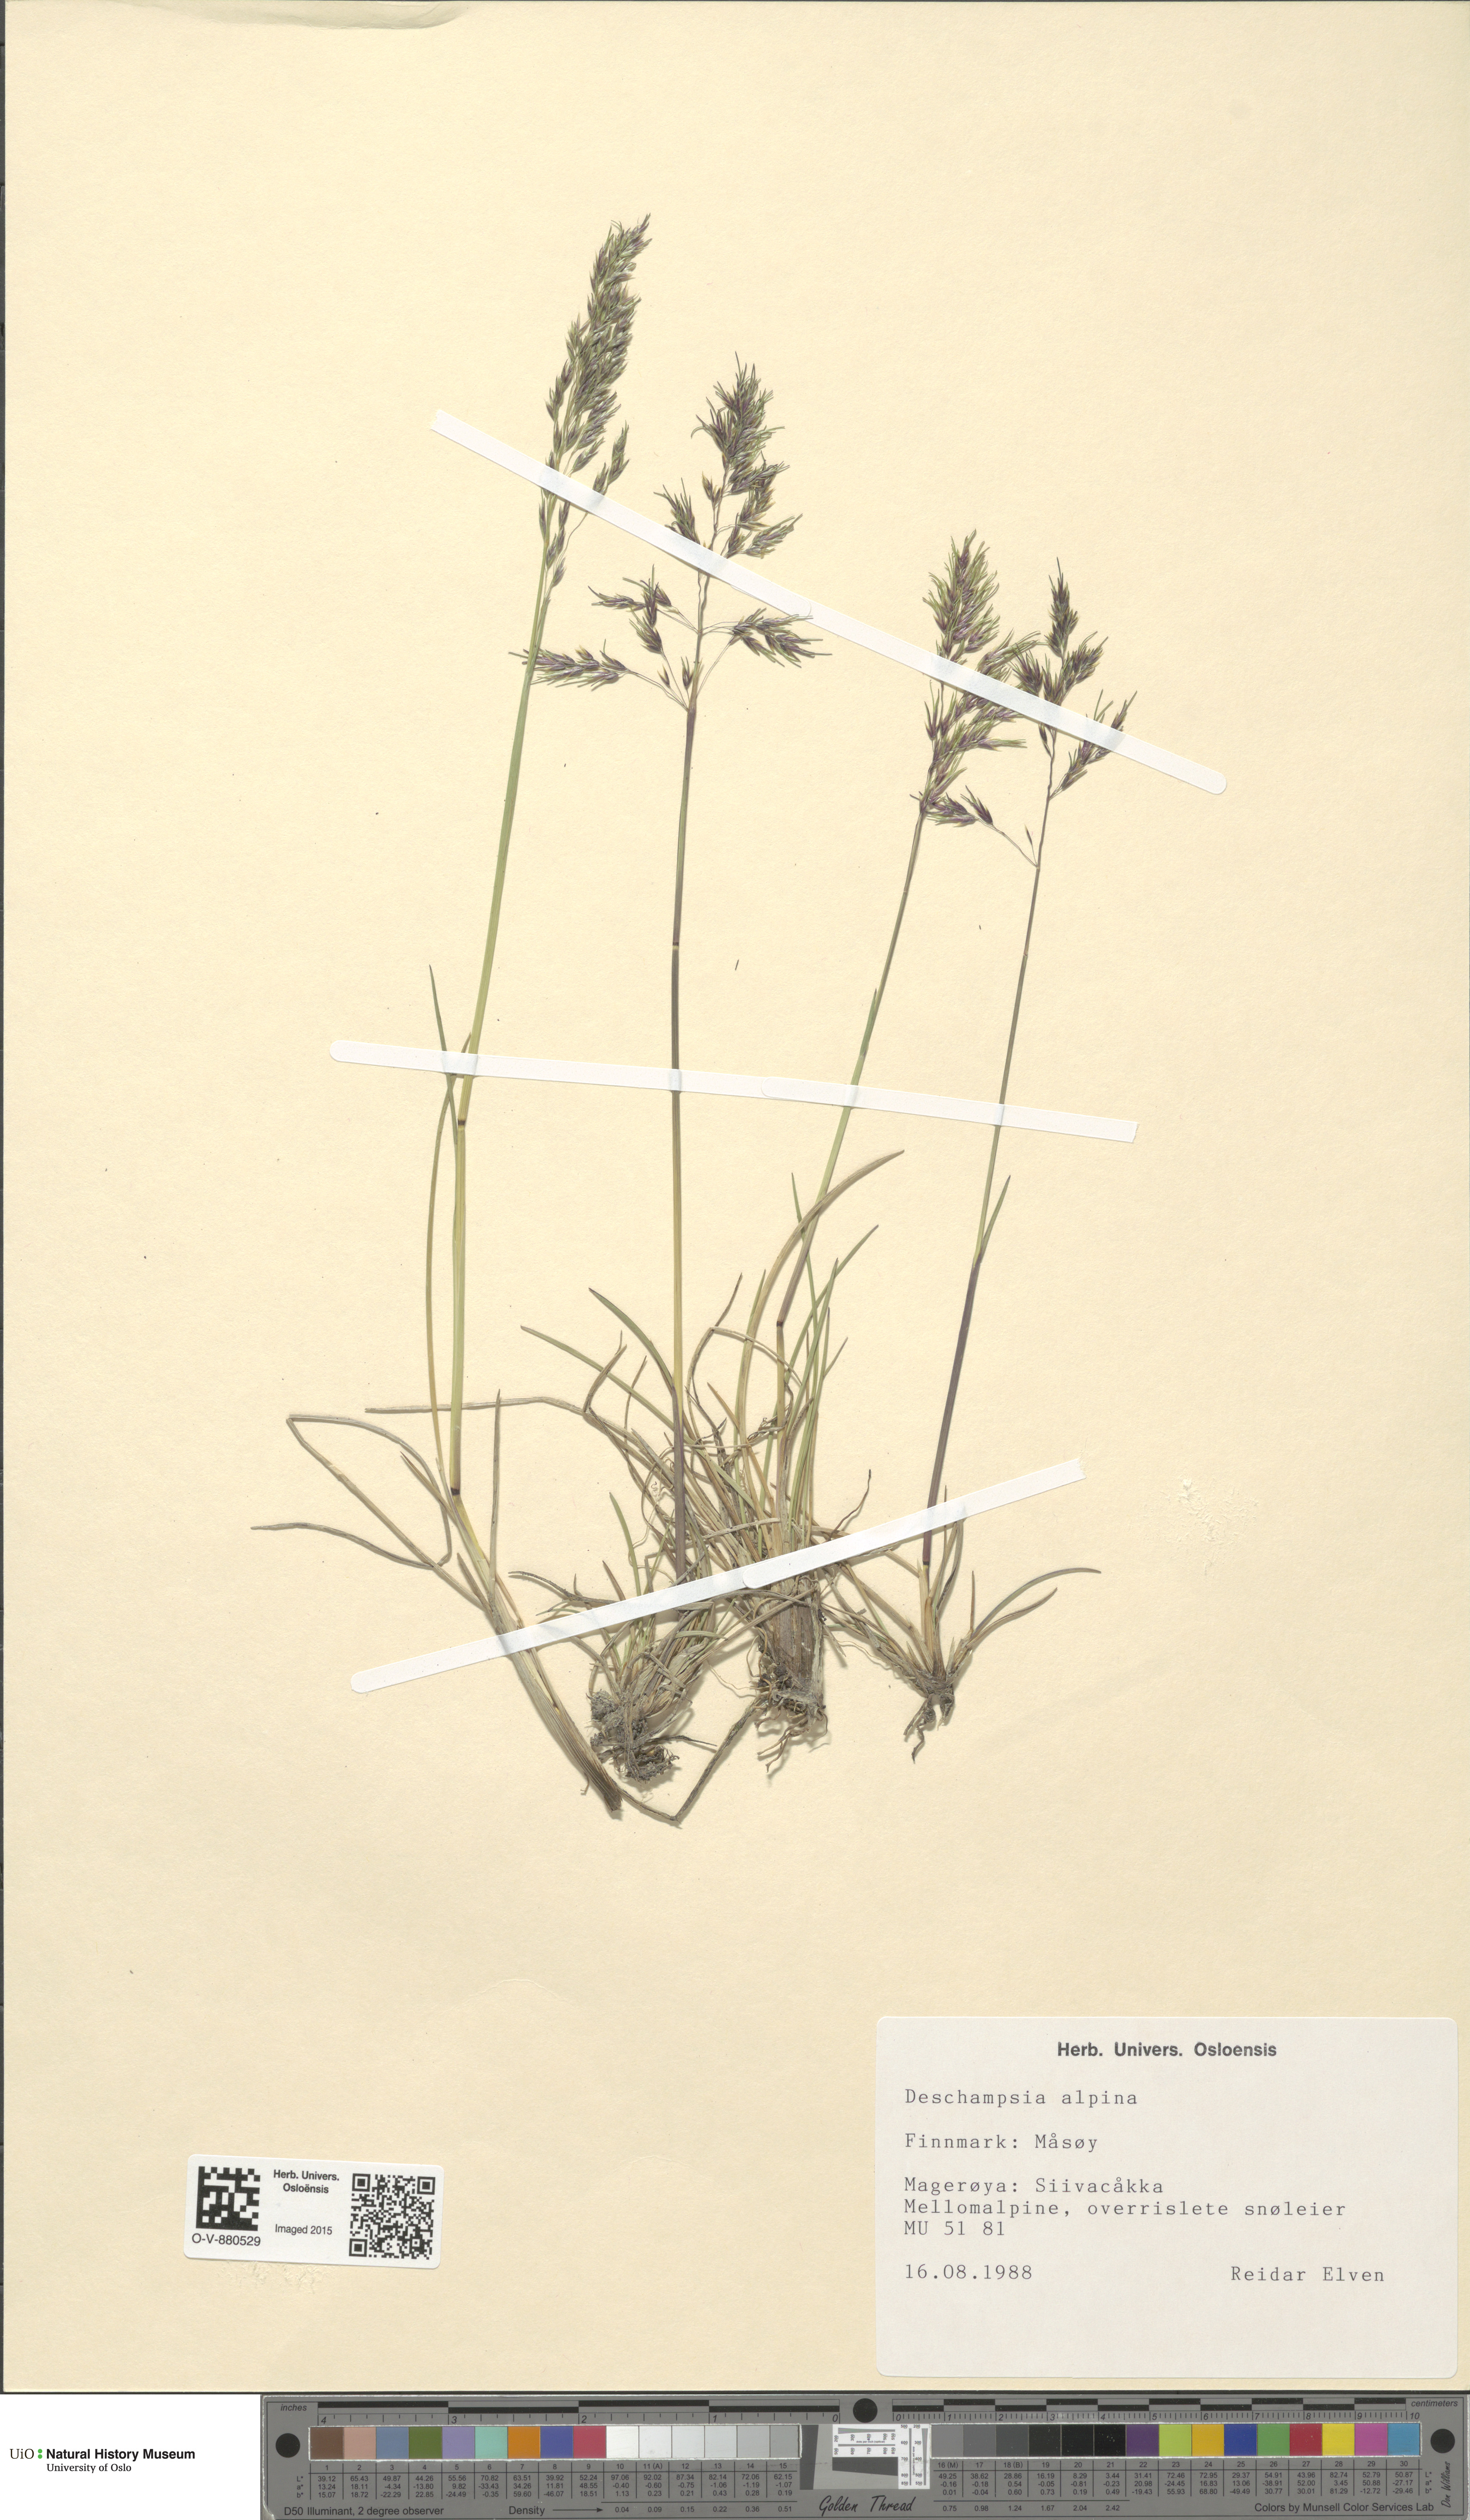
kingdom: Plantae
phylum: Tracheophyta
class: Liliopsida
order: Poales
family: Poaceae
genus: Deschampsia
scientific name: Deschampsia cespitosa
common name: Tufted hair-grass
